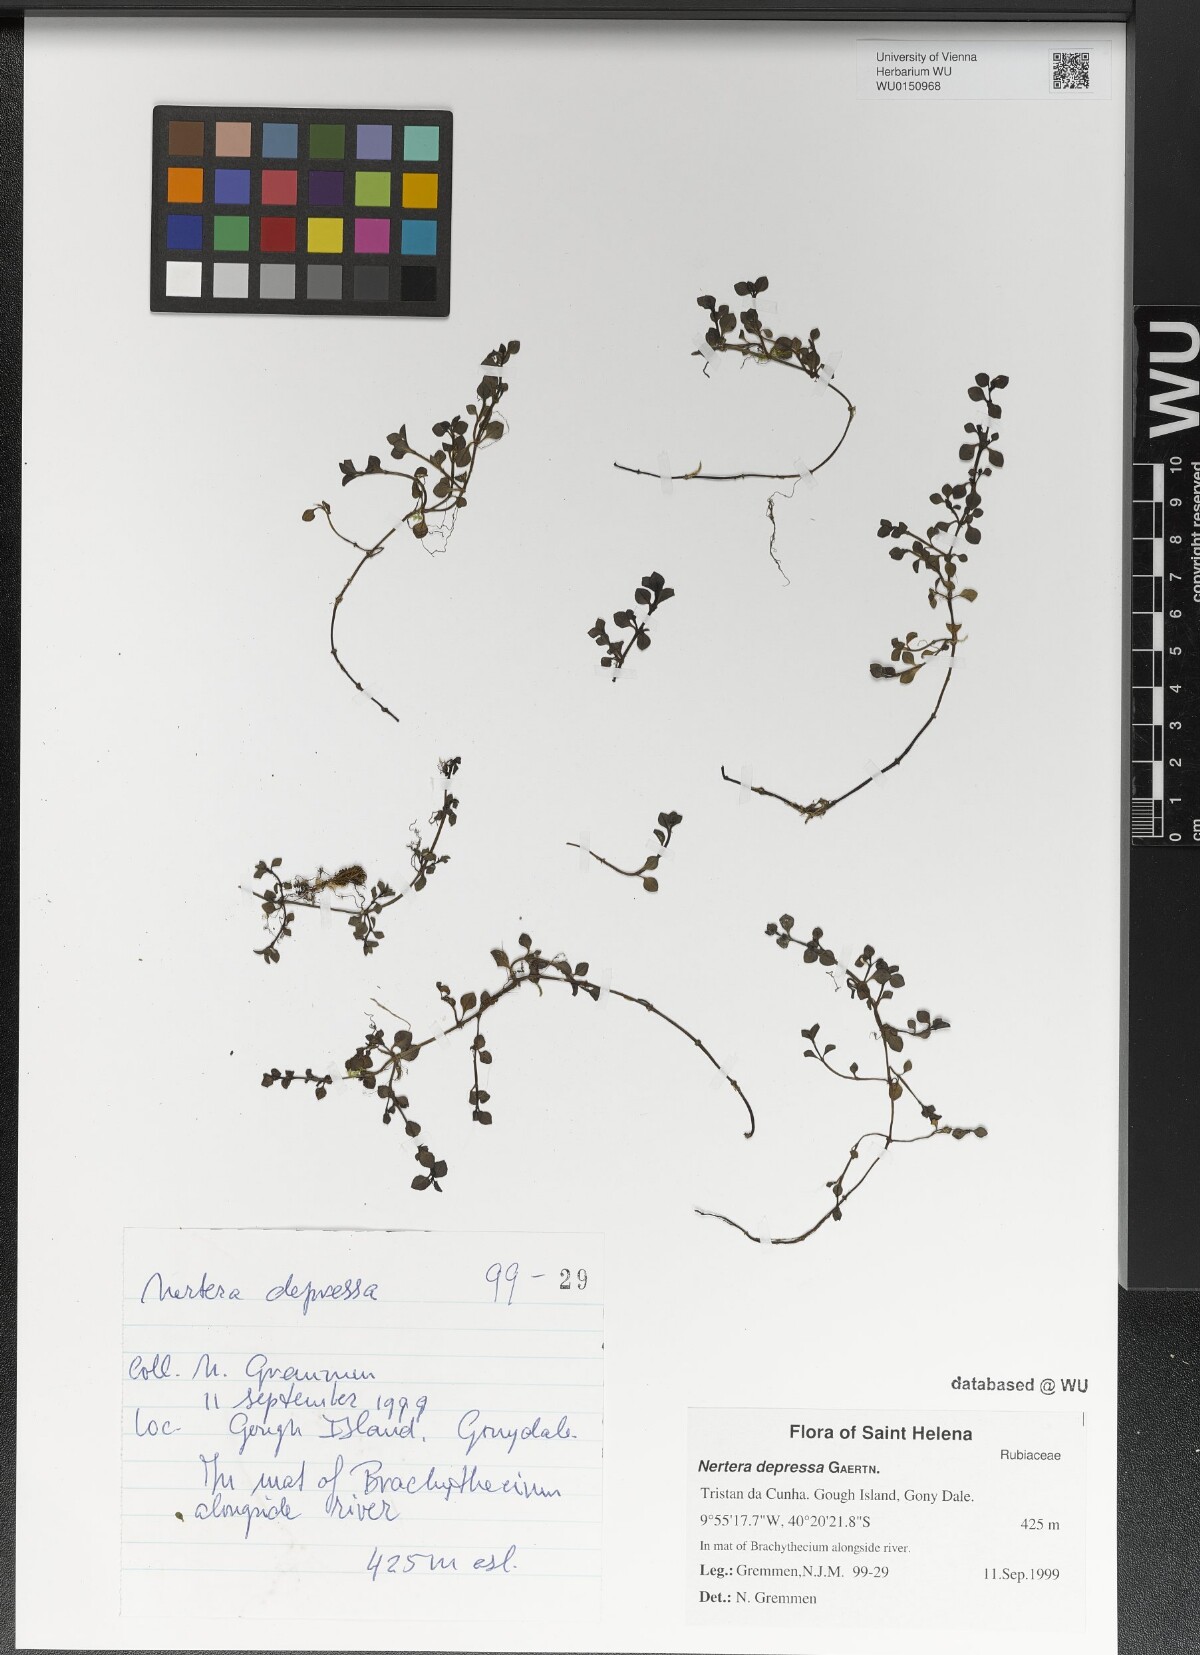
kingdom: Plantae
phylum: Tracheophyta
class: Magnoliopsida
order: Gentianales
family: Rubiaceae
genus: Nertera
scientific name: Nertera granadensis
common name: Beadplant
